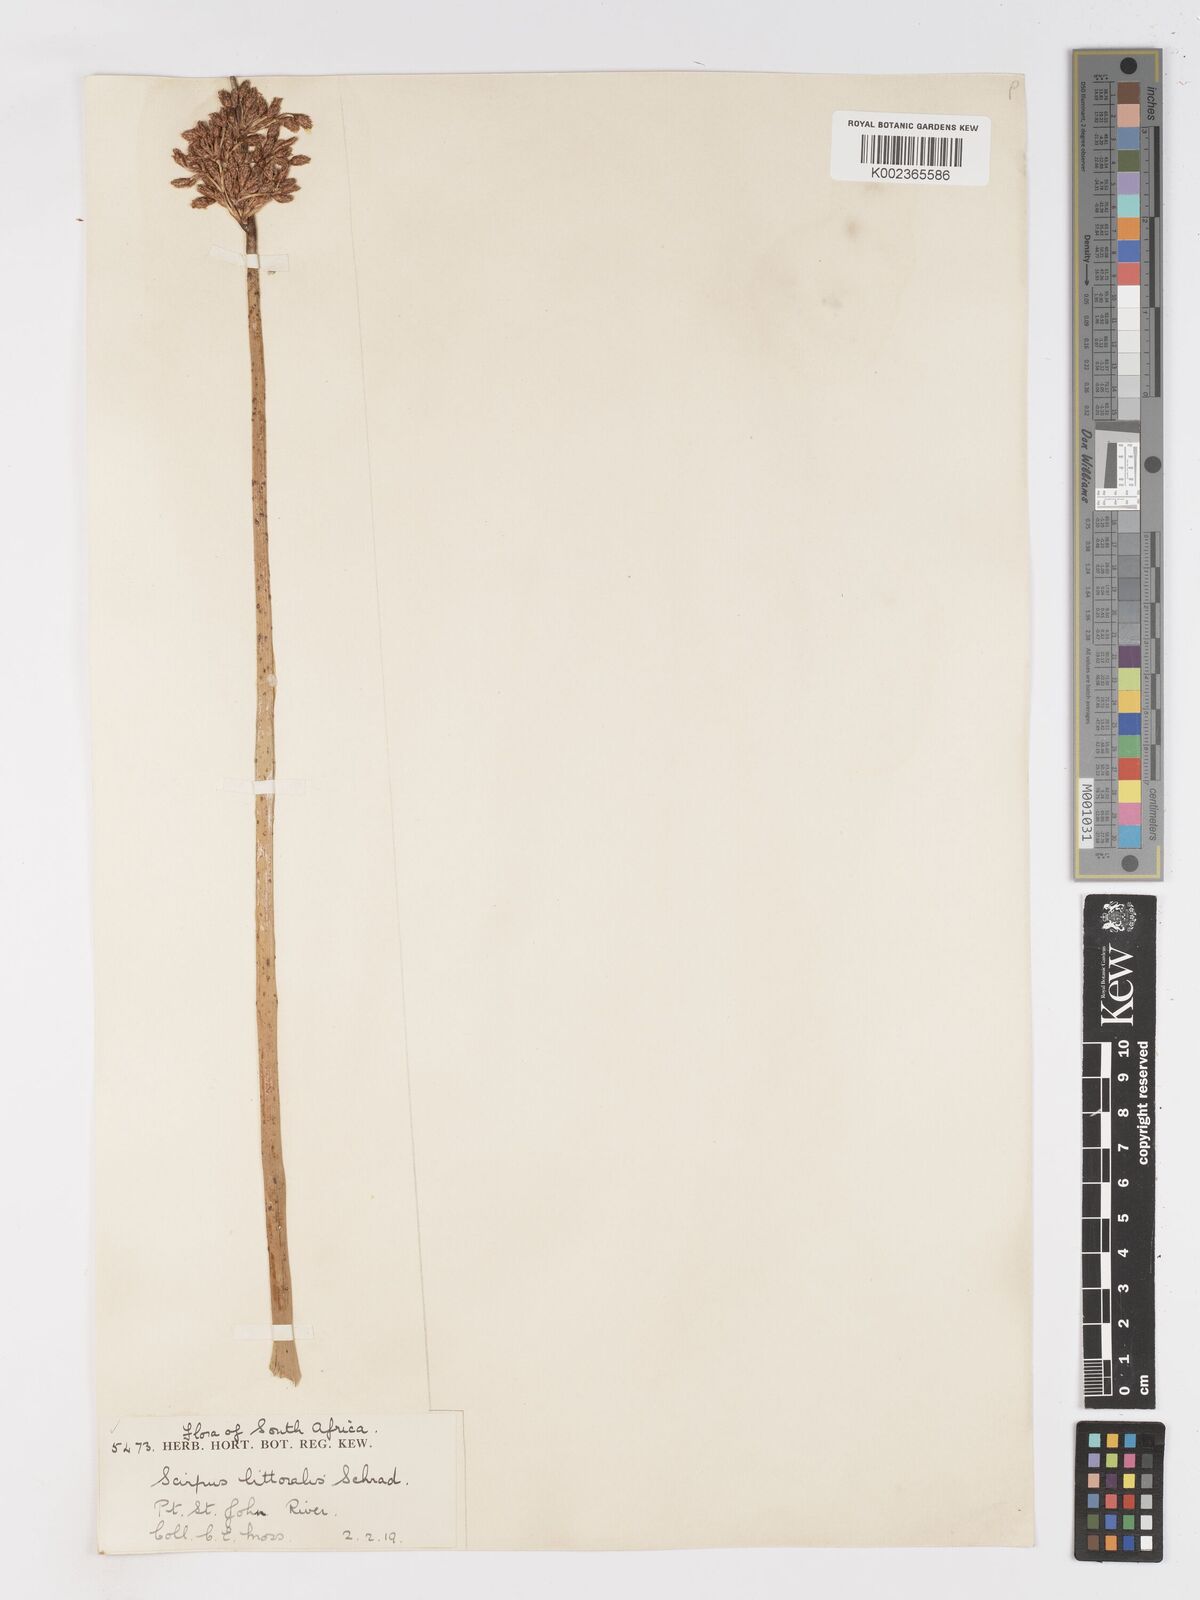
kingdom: Plantae
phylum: Tracheophyta
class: Liliopsida
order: Poales
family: Cyperaceae
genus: Schoenoplectus
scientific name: Schoenoplectus
